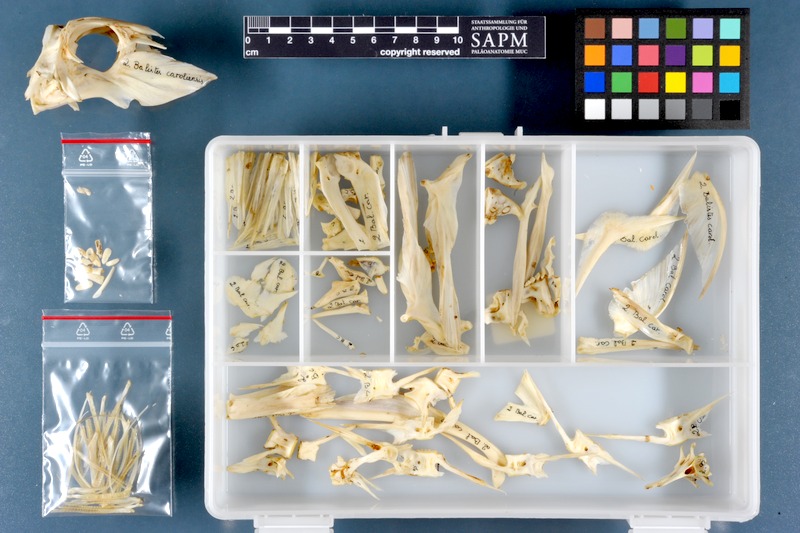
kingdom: Animalia
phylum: Chordata
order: Tetraodontiformes
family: Balistidae
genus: Balistes
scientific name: Balistes capriscus
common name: Grey triggerfish
